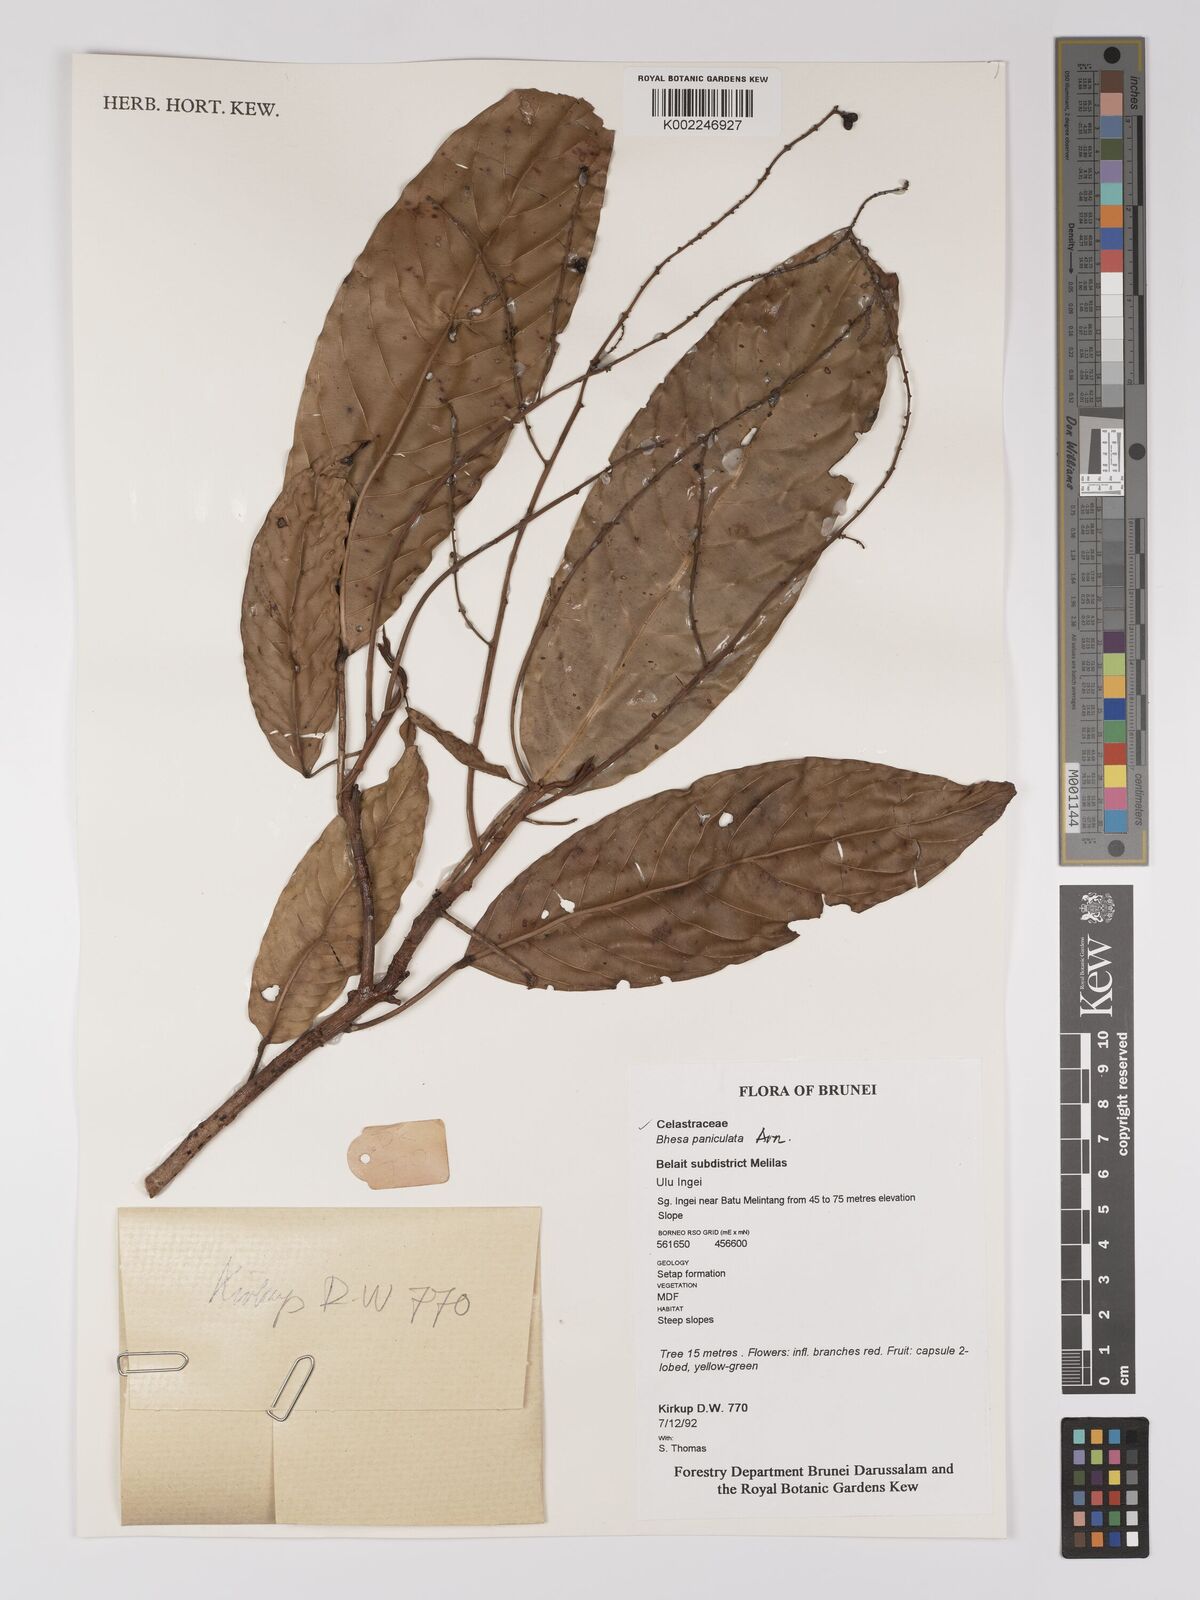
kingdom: Plantae
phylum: Tracheophyta
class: Magnoliopsida
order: Malpighiales
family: Centroplacaceae
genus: Bhesa
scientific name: Bhesa paniculata
